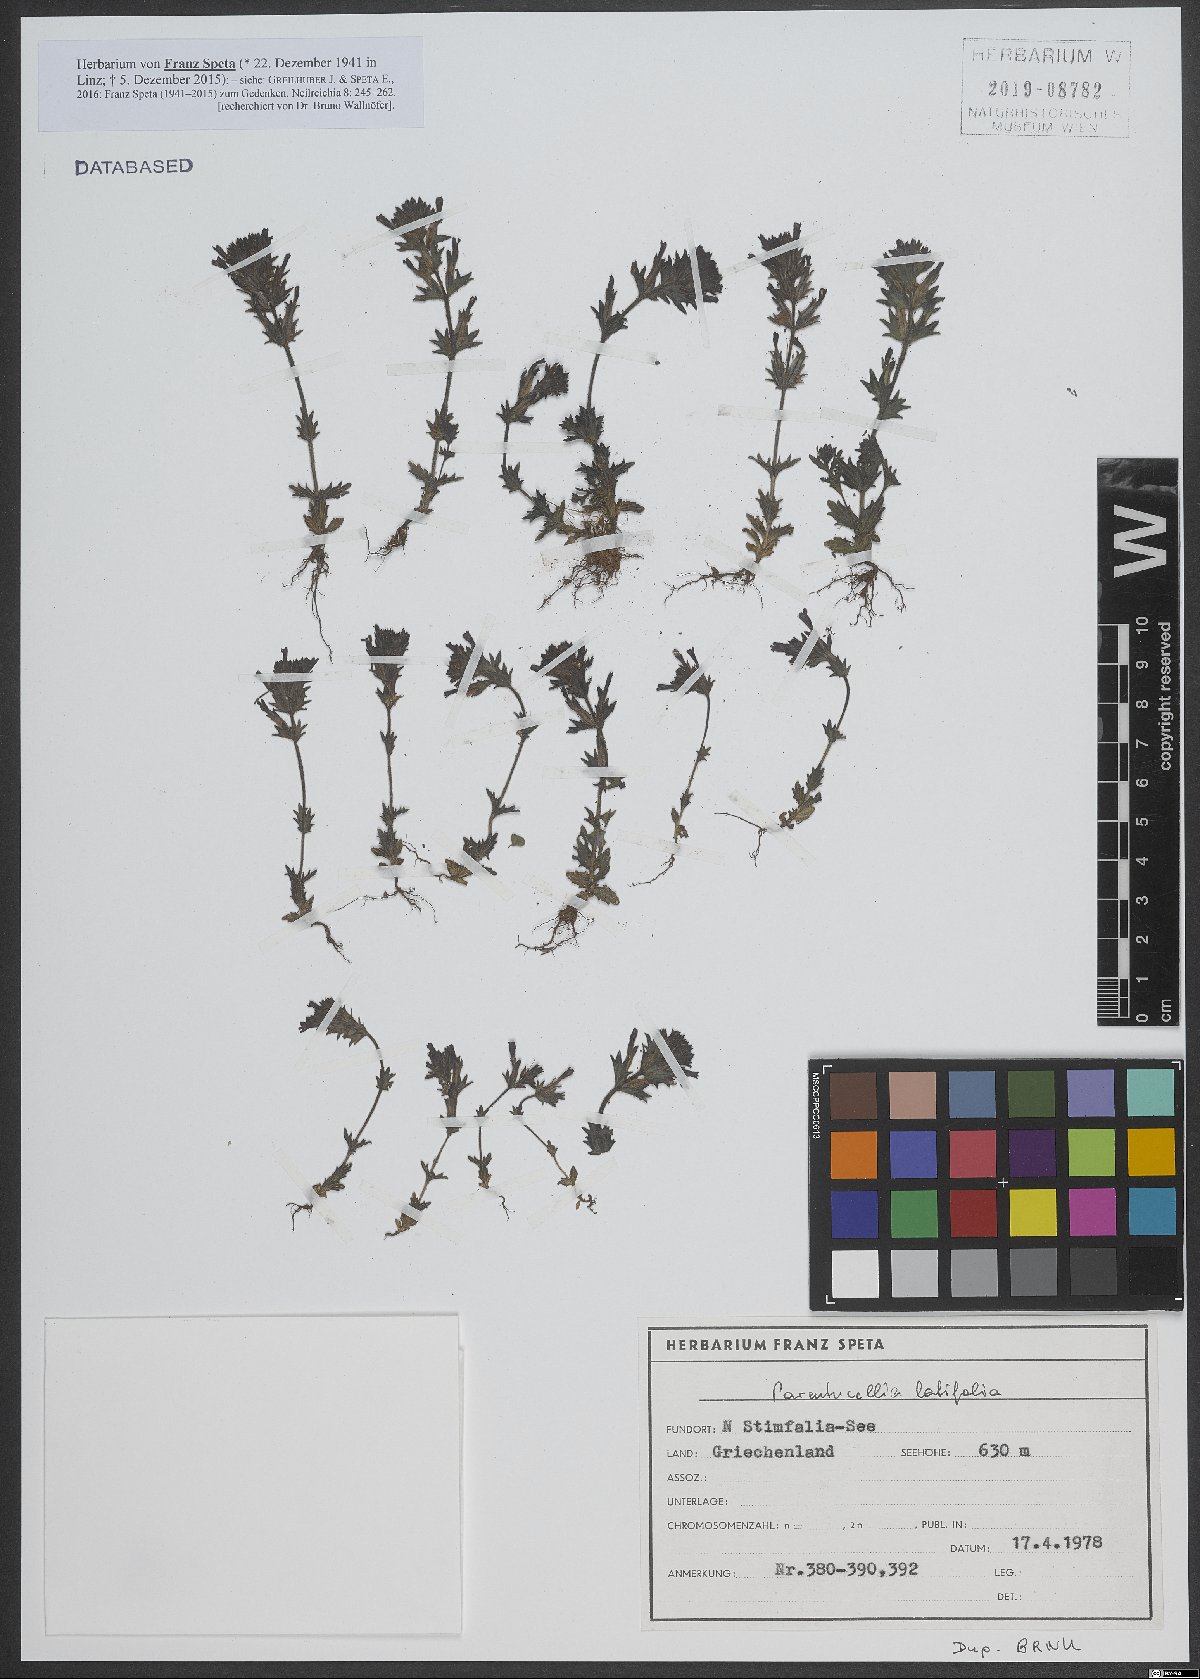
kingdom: Plantae
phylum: Tracheophyta
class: Magnoliopsida
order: Lamiales
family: Orobanchaceae
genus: Parentucellia
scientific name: Parentucellia latifolia
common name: Broadleaf glandweed
